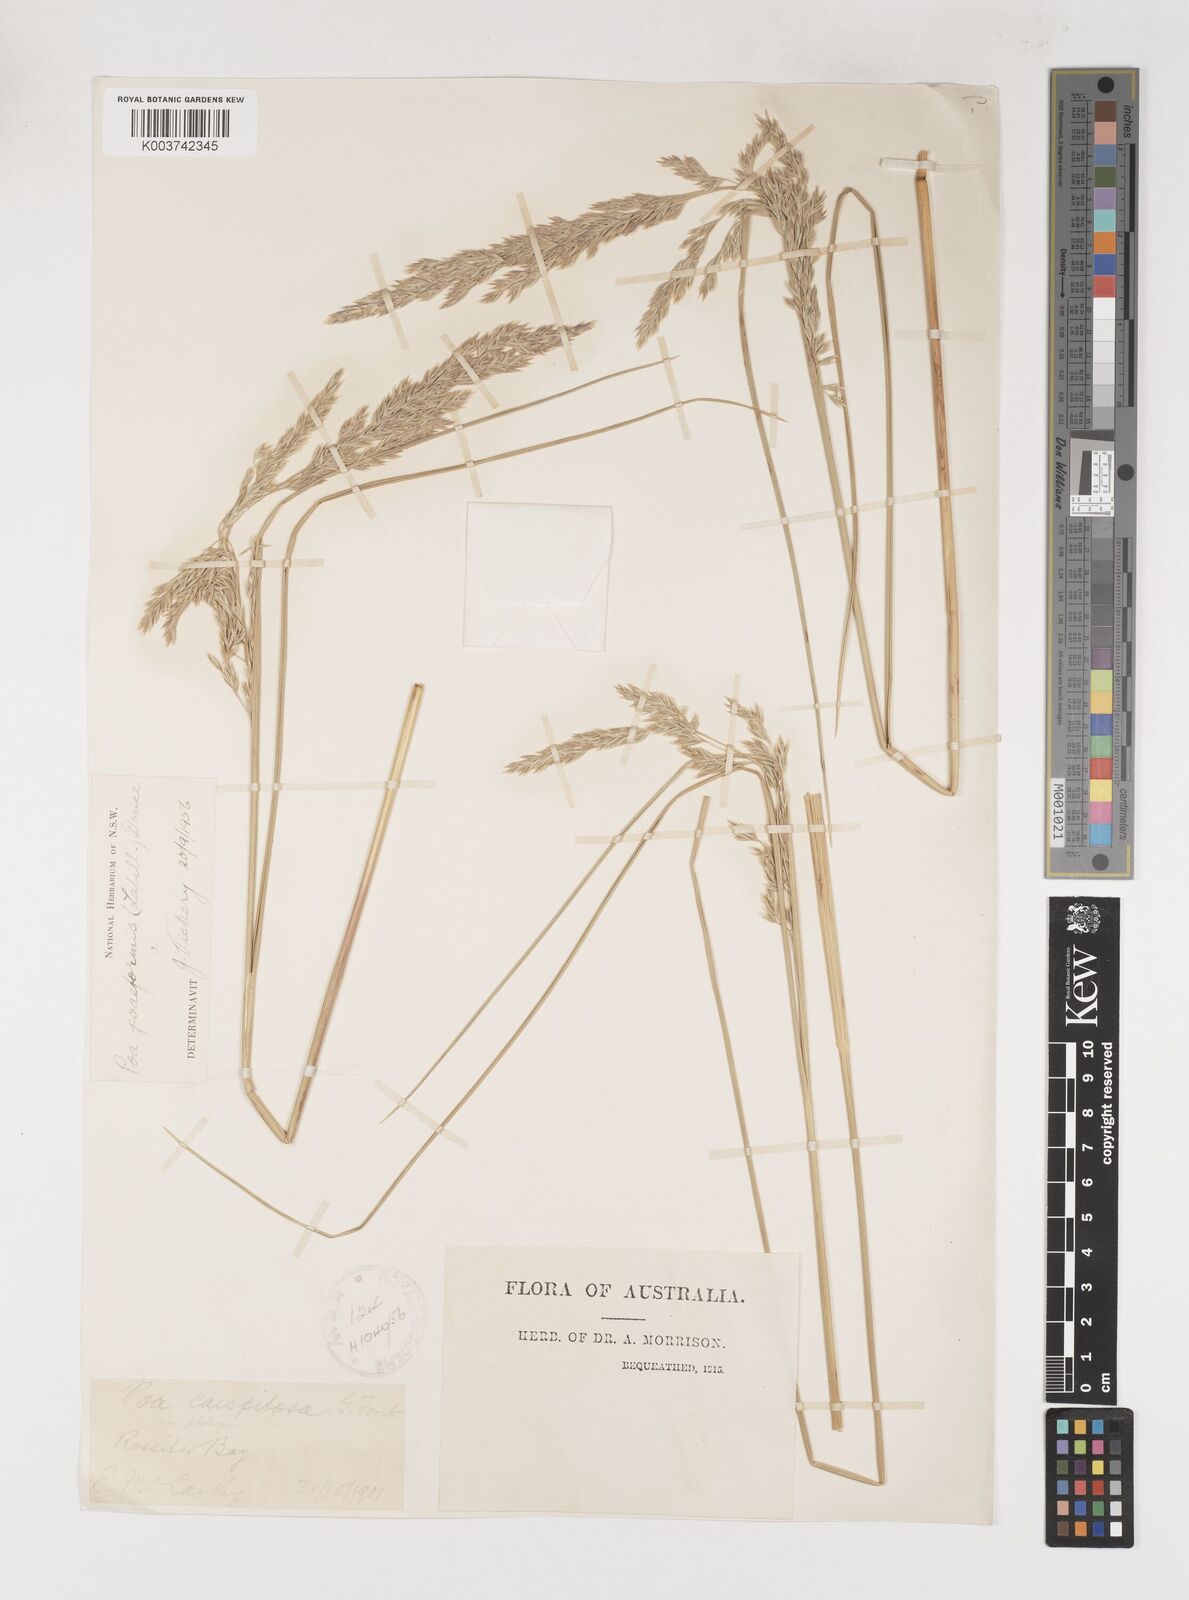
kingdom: Plantae
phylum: Tracheophyta
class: Liliopsida
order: Poales
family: Poaceae
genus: Poa
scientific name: Poa poiformis
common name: Tussock poa
